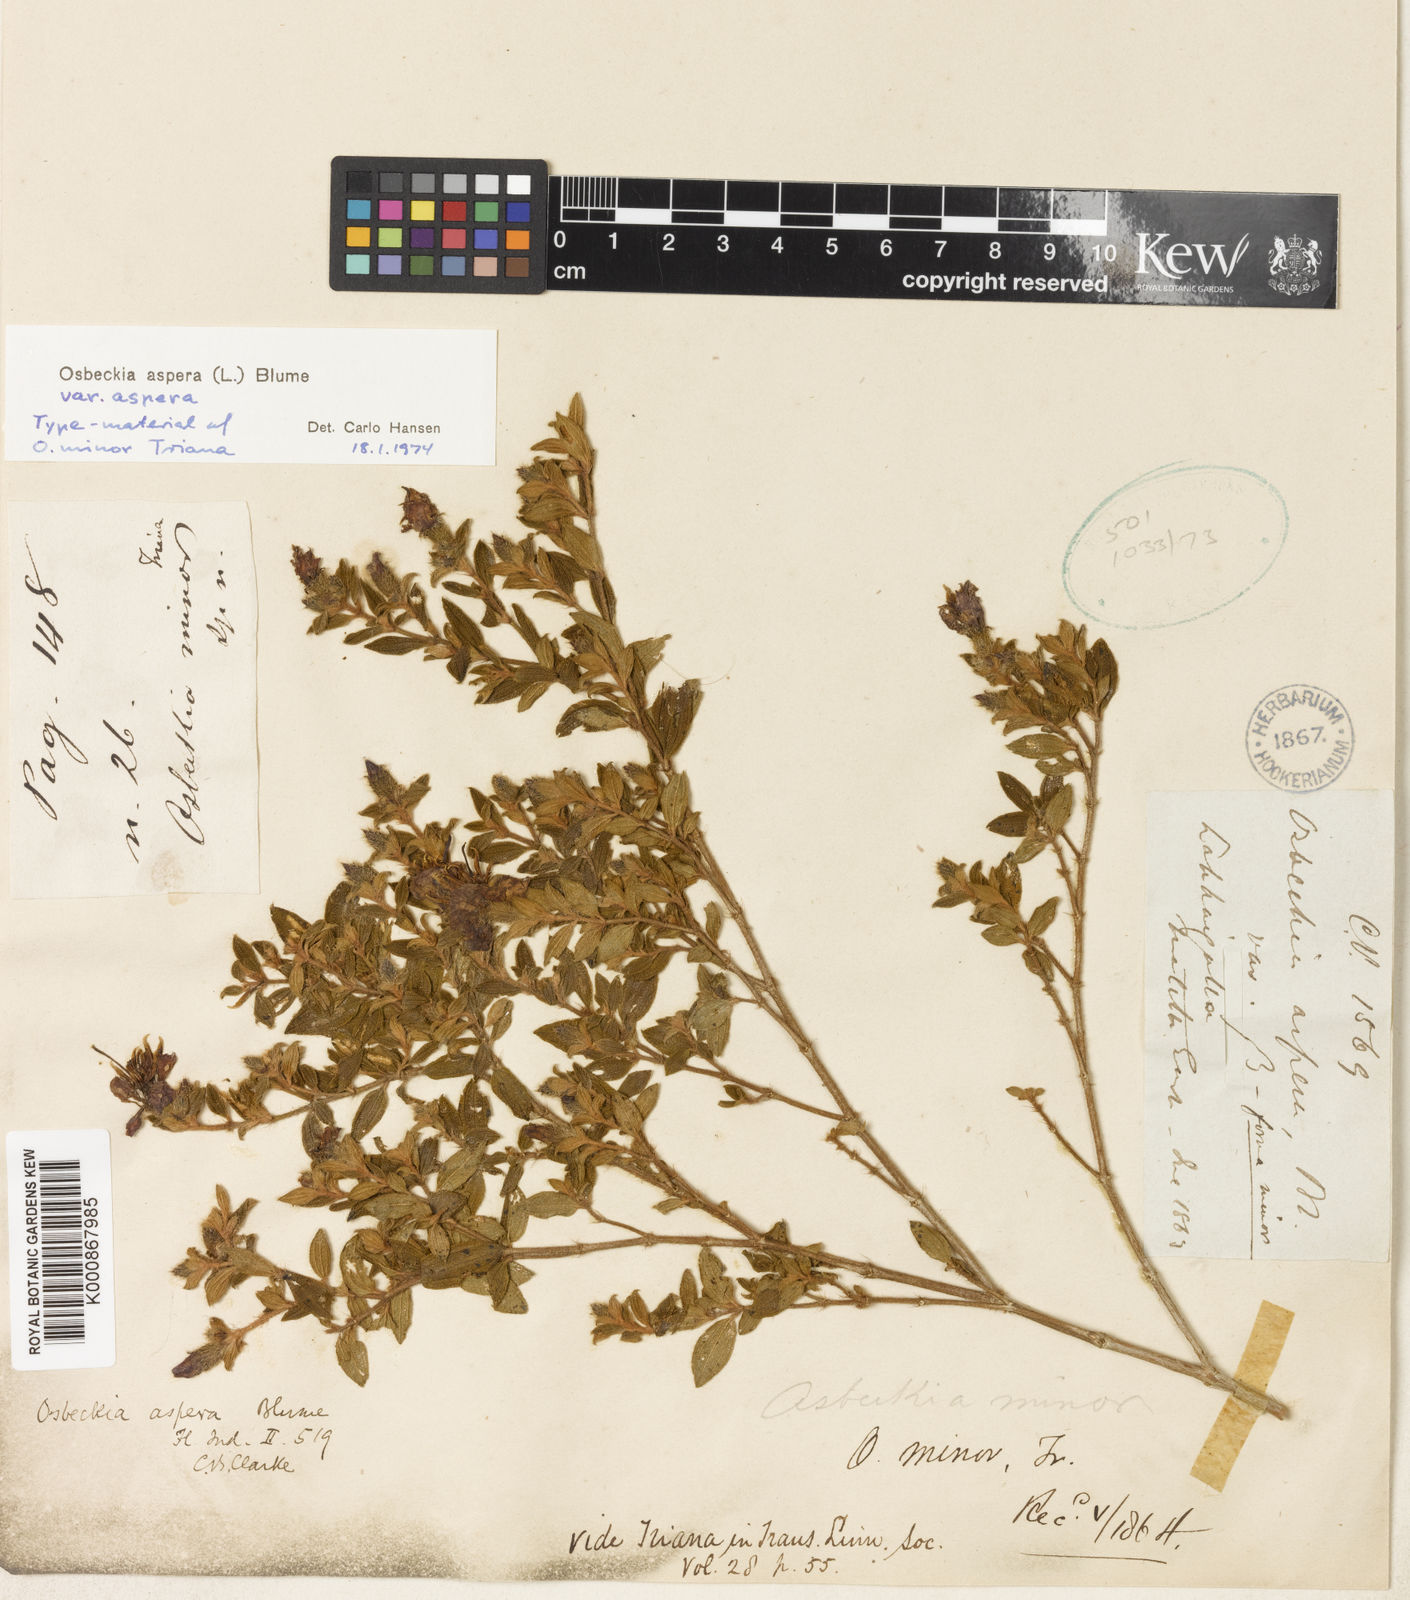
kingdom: Plantae
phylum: Tracheophyta
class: Magnoliopsida
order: Myrtales
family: Melastomataceae
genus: Osbeckia
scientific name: Osbeckia aspera
